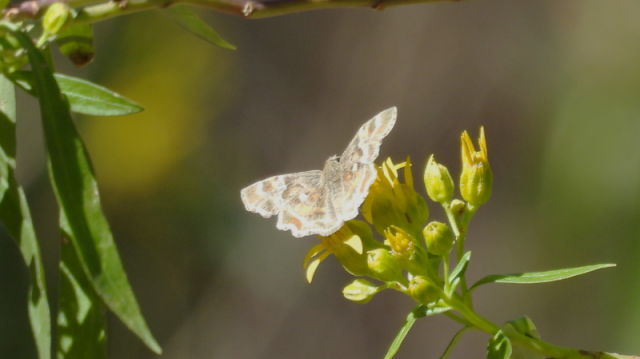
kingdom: Animalia
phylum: Arthropoda
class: Insecta
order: Lepidoptera
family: Hesperiidae
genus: Systasea
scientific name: Systasea zampa
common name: Arizona Powdered-Skipper
